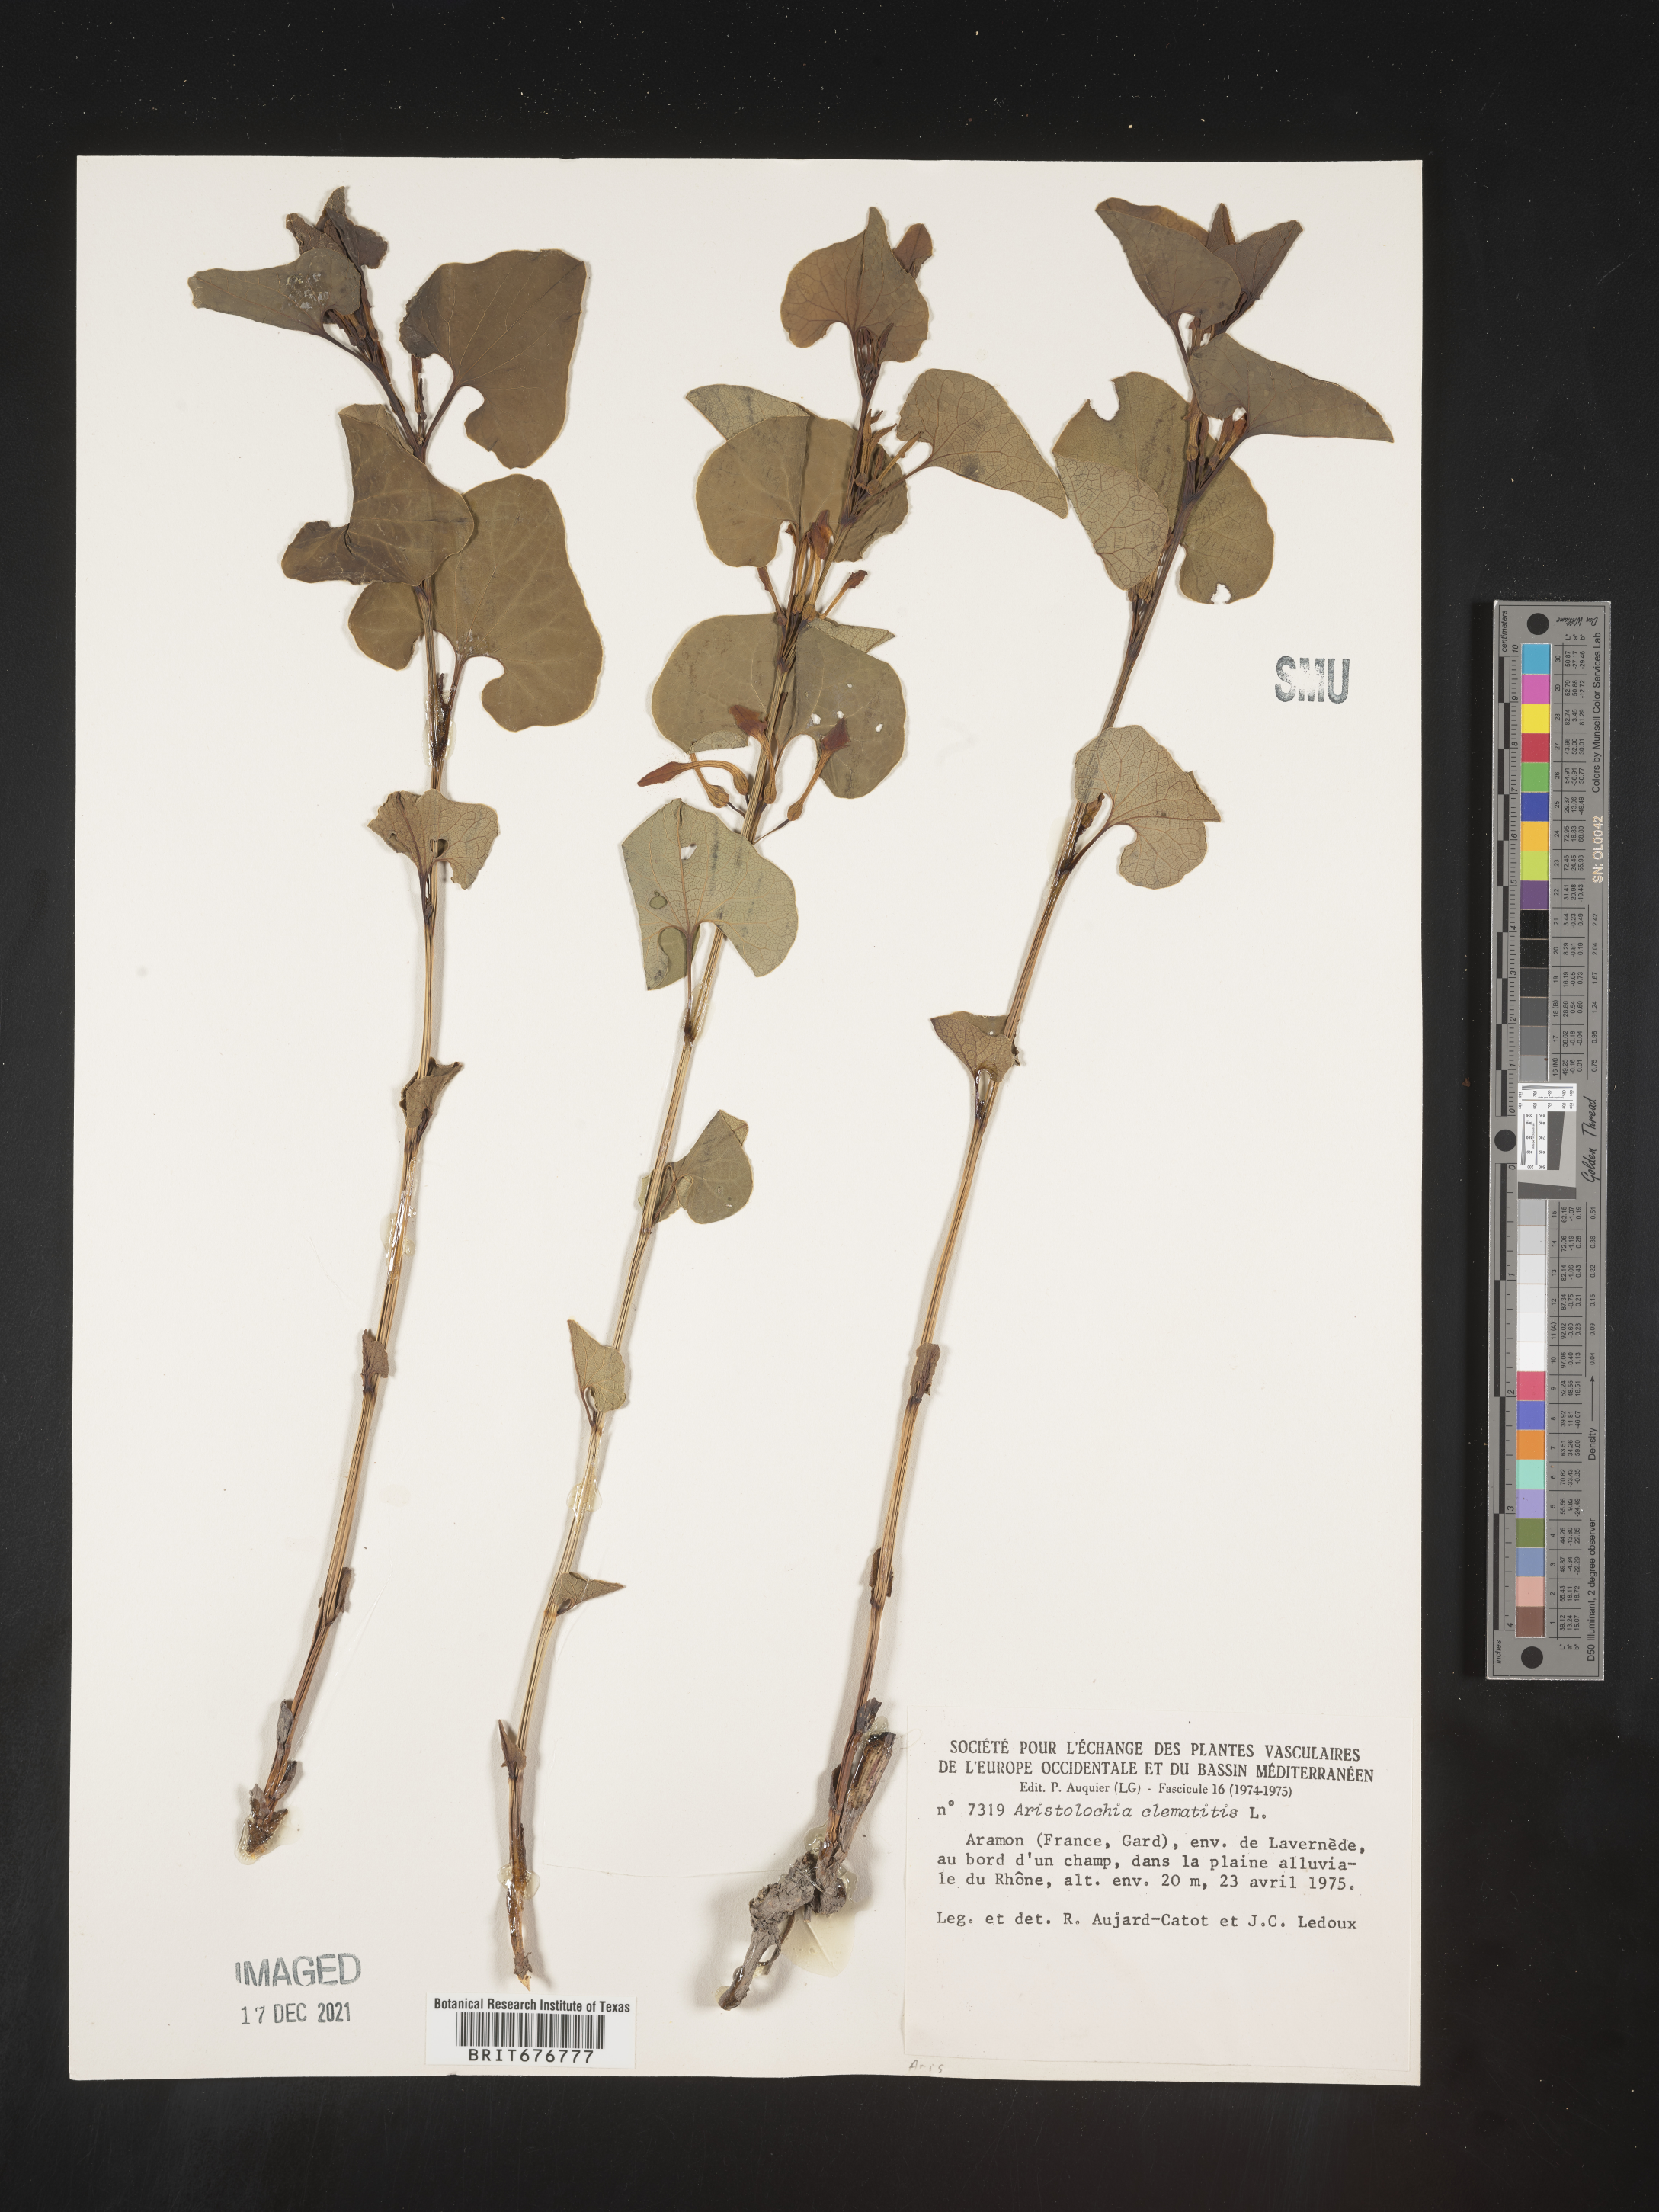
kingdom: Plantae
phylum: Tracheophyta
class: Magnoliopsida
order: Piperales
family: Aristolochiaceae
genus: Aristolochia
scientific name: Aristolochia
